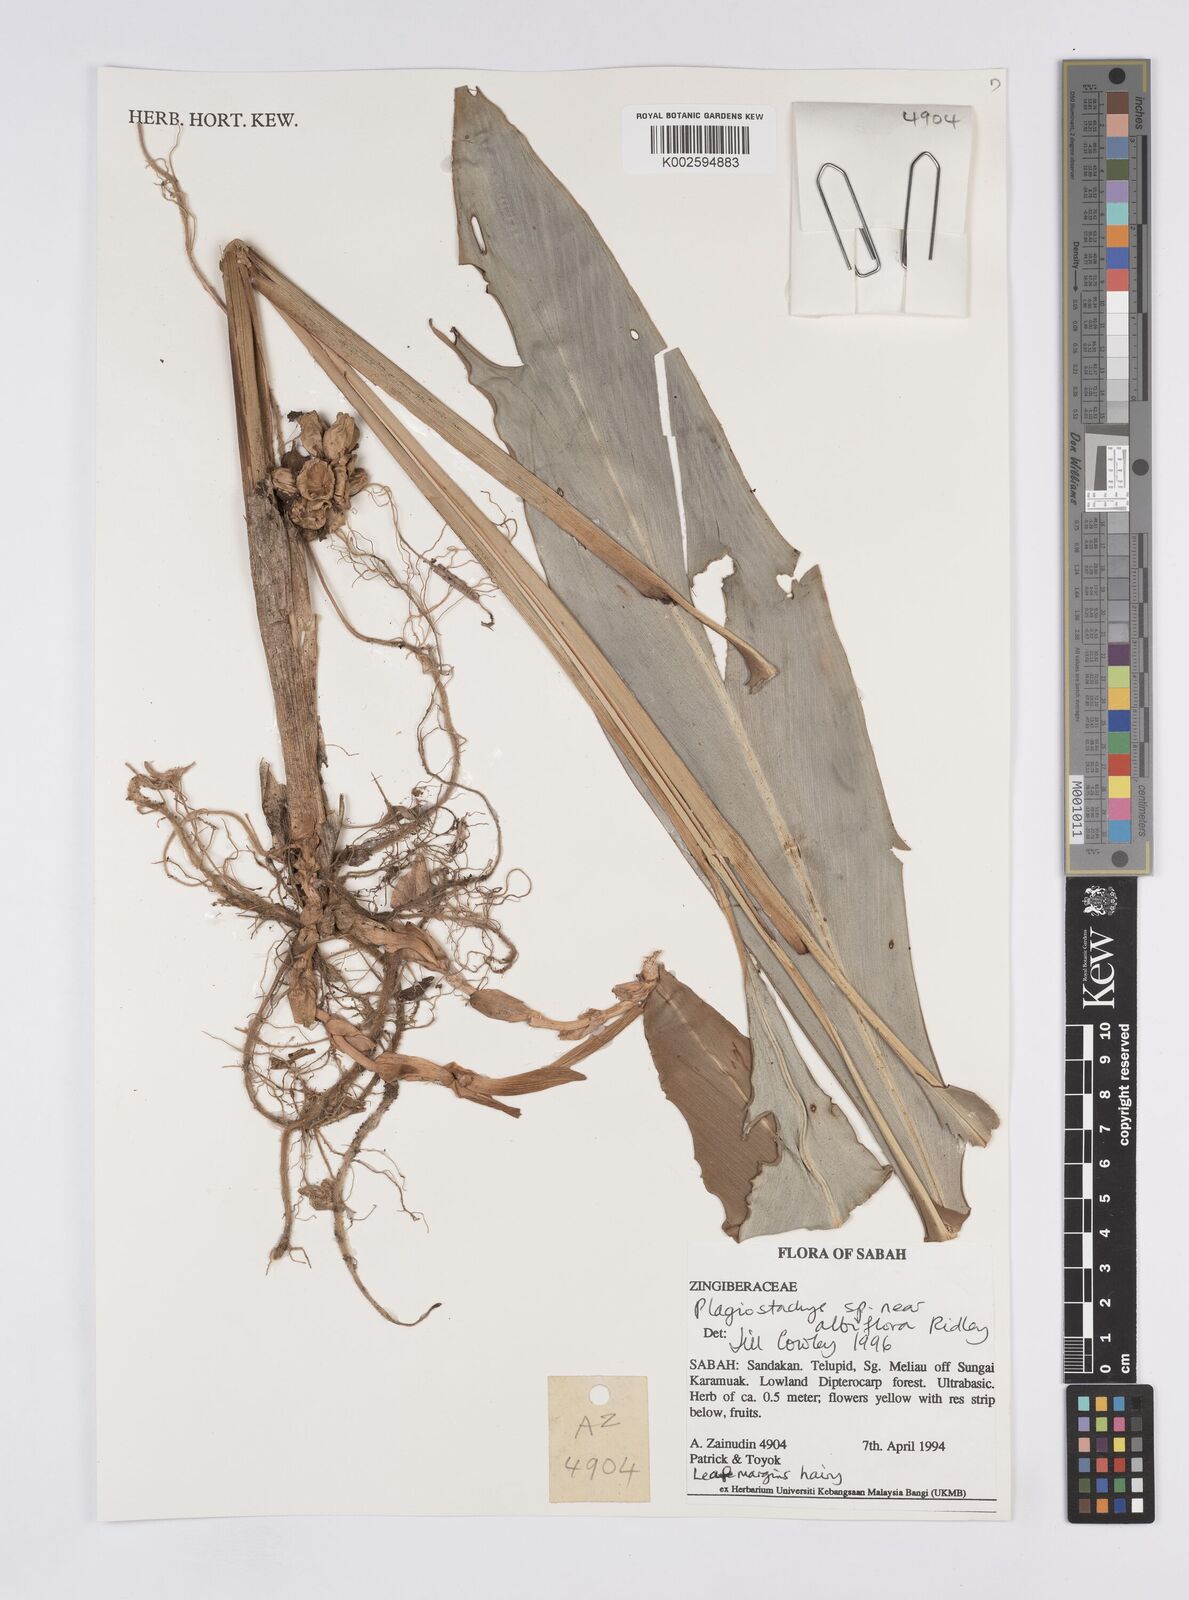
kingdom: Plantae
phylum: Tracheophyta
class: Liliopsida
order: Zingiberales
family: Zingiberaceae
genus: Plagiostachys
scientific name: Plagiostachys albiflora
